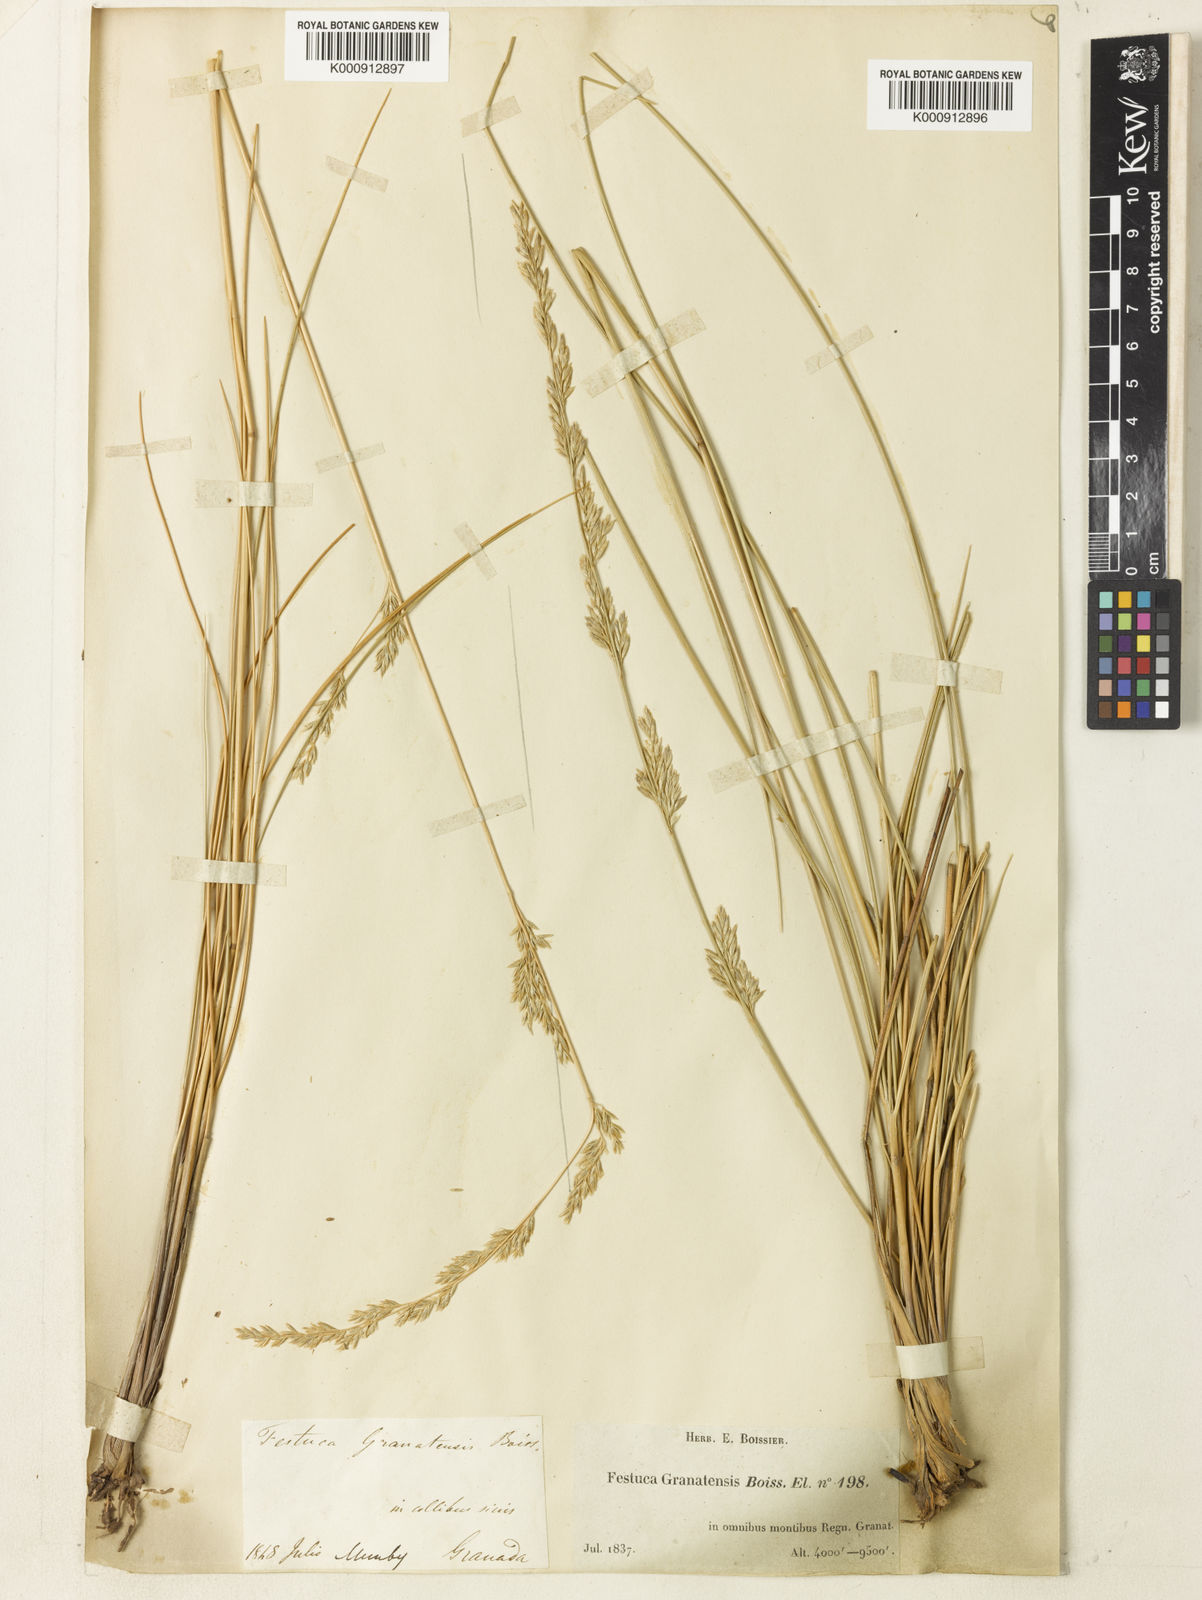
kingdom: Plantae
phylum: Tracheophyta
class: Liliopsida
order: Poales
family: Poaceae
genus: Festuca
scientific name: Festuca scariosa
